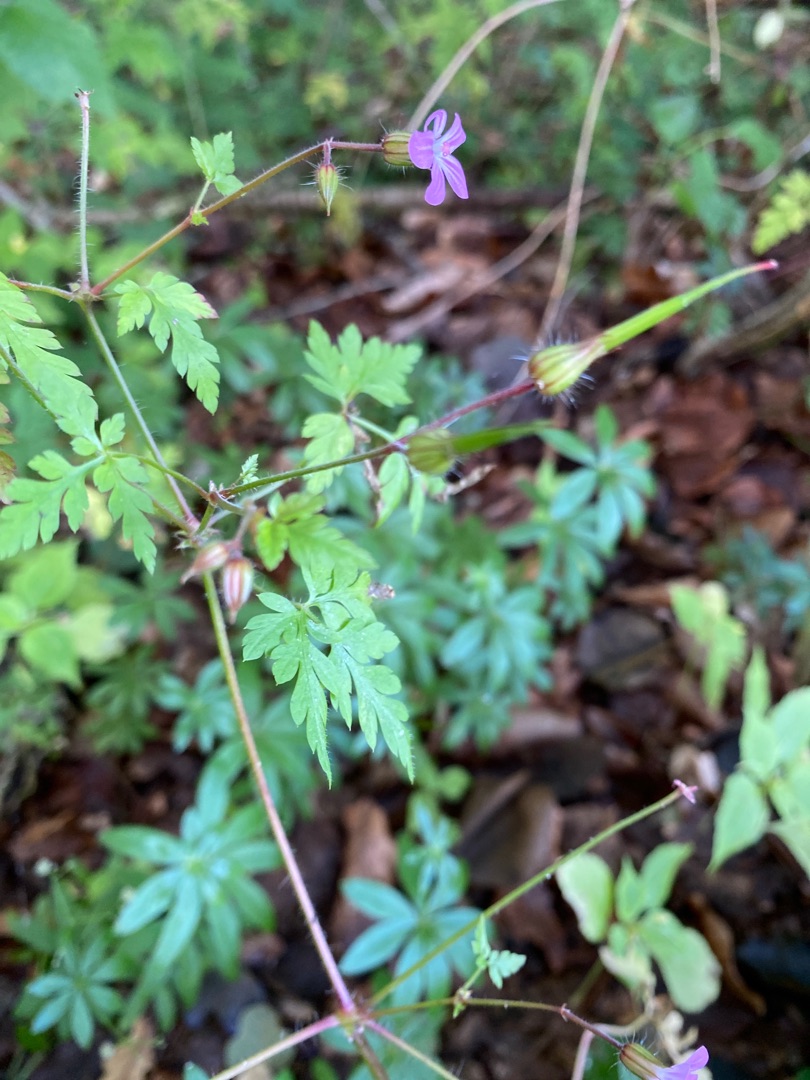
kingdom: Plantae
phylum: Tracheophyta
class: Magnoliopsida
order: Geraniales
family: Geraniaceae
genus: Geranium
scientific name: Geranium robertianum
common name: Stinkende storkenæb
